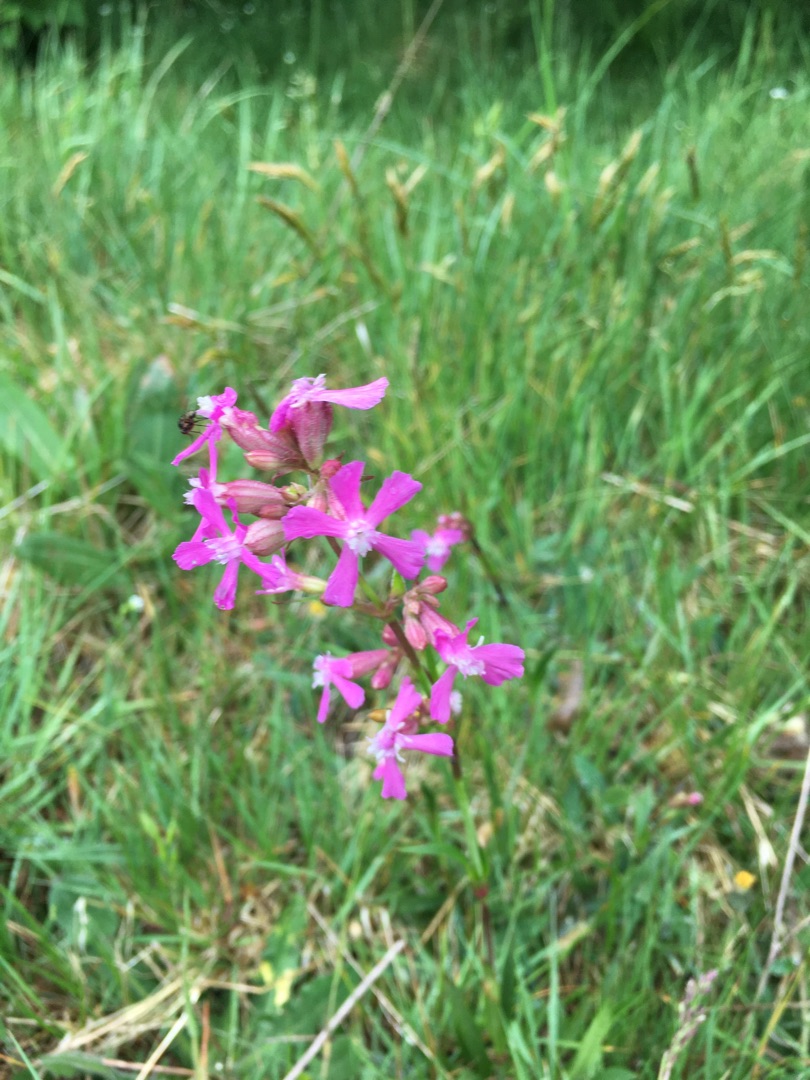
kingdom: Plantae
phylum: Tracheophyta
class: Magnoliopsida
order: Caryophyllales
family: Caryophyllaceae
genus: Viscaria
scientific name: Viscaria vulgaris
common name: Tjærenellike
